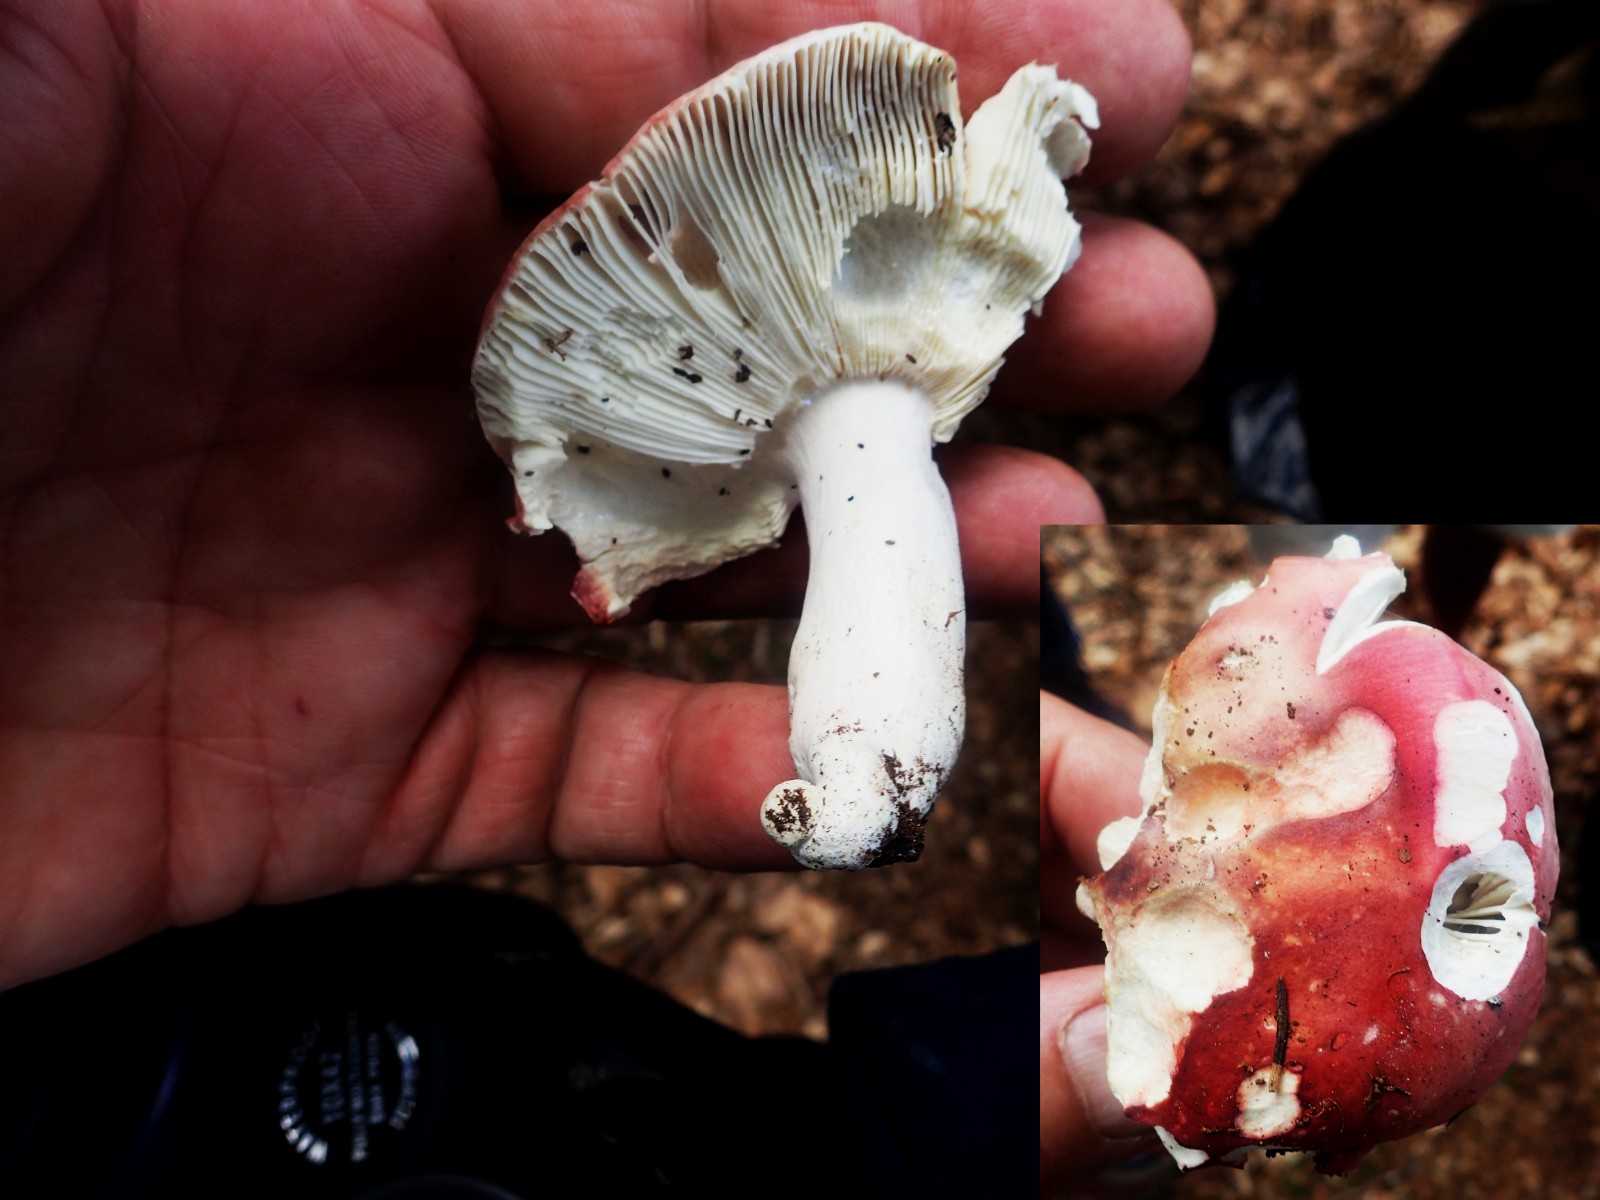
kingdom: Fungi
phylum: Basidiomycota
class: Agaricomycetes
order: Russulales
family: Russulaceae
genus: Russula
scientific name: Russula olivacea
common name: stor skørhat
